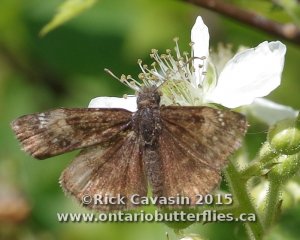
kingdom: Animalia
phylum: Arthropoda
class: Insecta
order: Lepidoptera
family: Hesperiidae
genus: Gesta
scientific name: Gesta
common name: Columbine Duskywing
